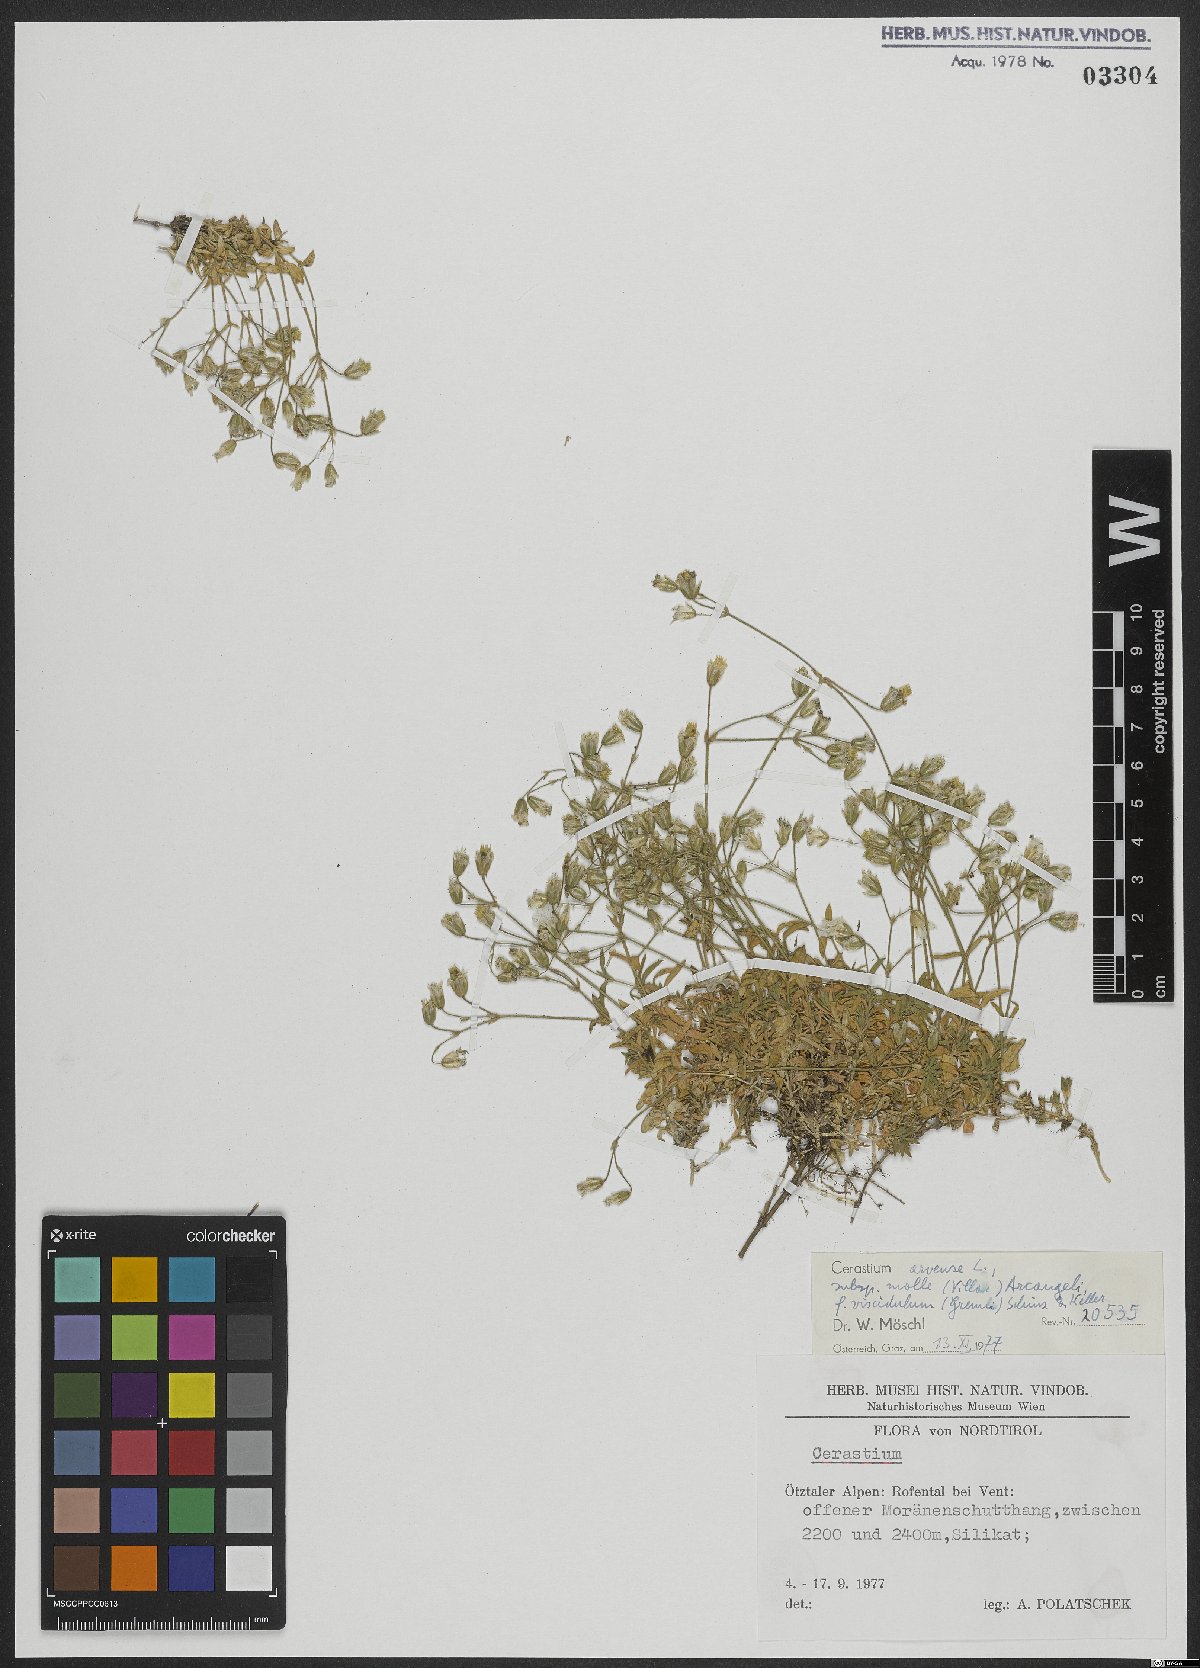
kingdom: Plantae
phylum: Tracheophyta
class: Magnoliopsida
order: Caryophyllales
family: Caryophyllaceae
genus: Cerastium
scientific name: Cerastium arvense
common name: Field mouse-ear
